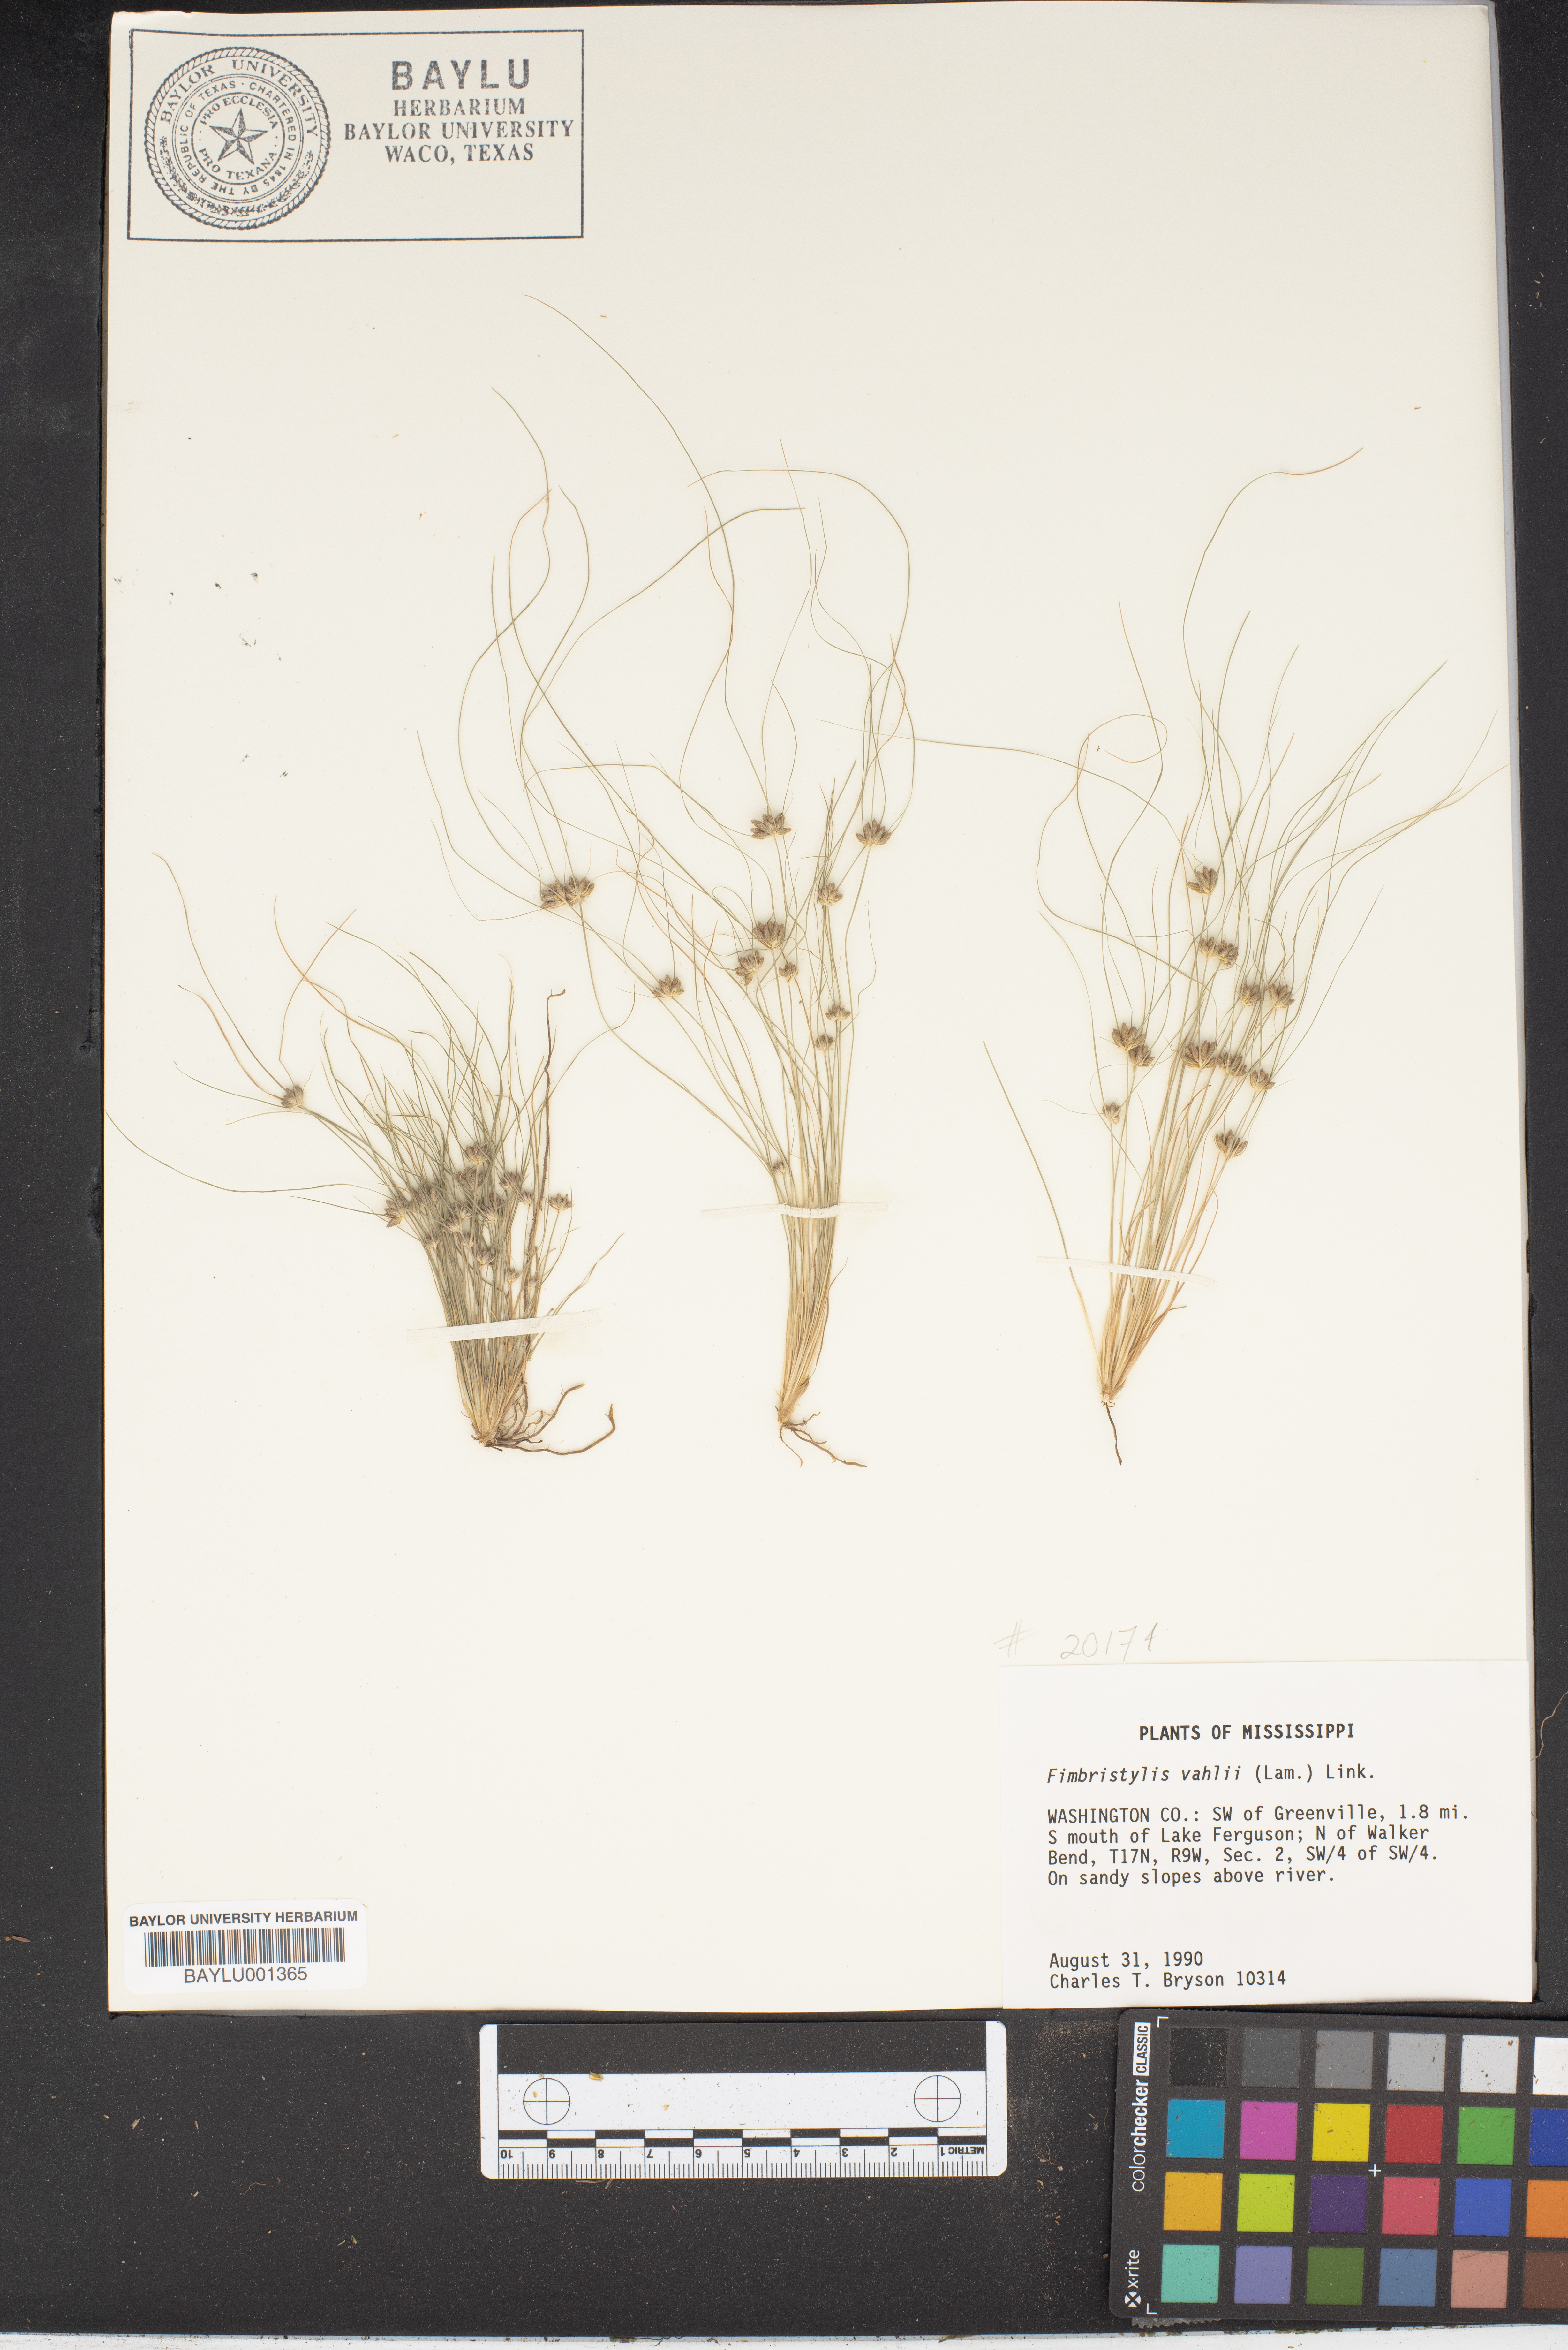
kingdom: Plantae
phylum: Tracheophyta
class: Liliopsida
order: Poales
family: Cyperaceae
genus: Fimbristylis
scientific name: Fimbristylis vahlii
